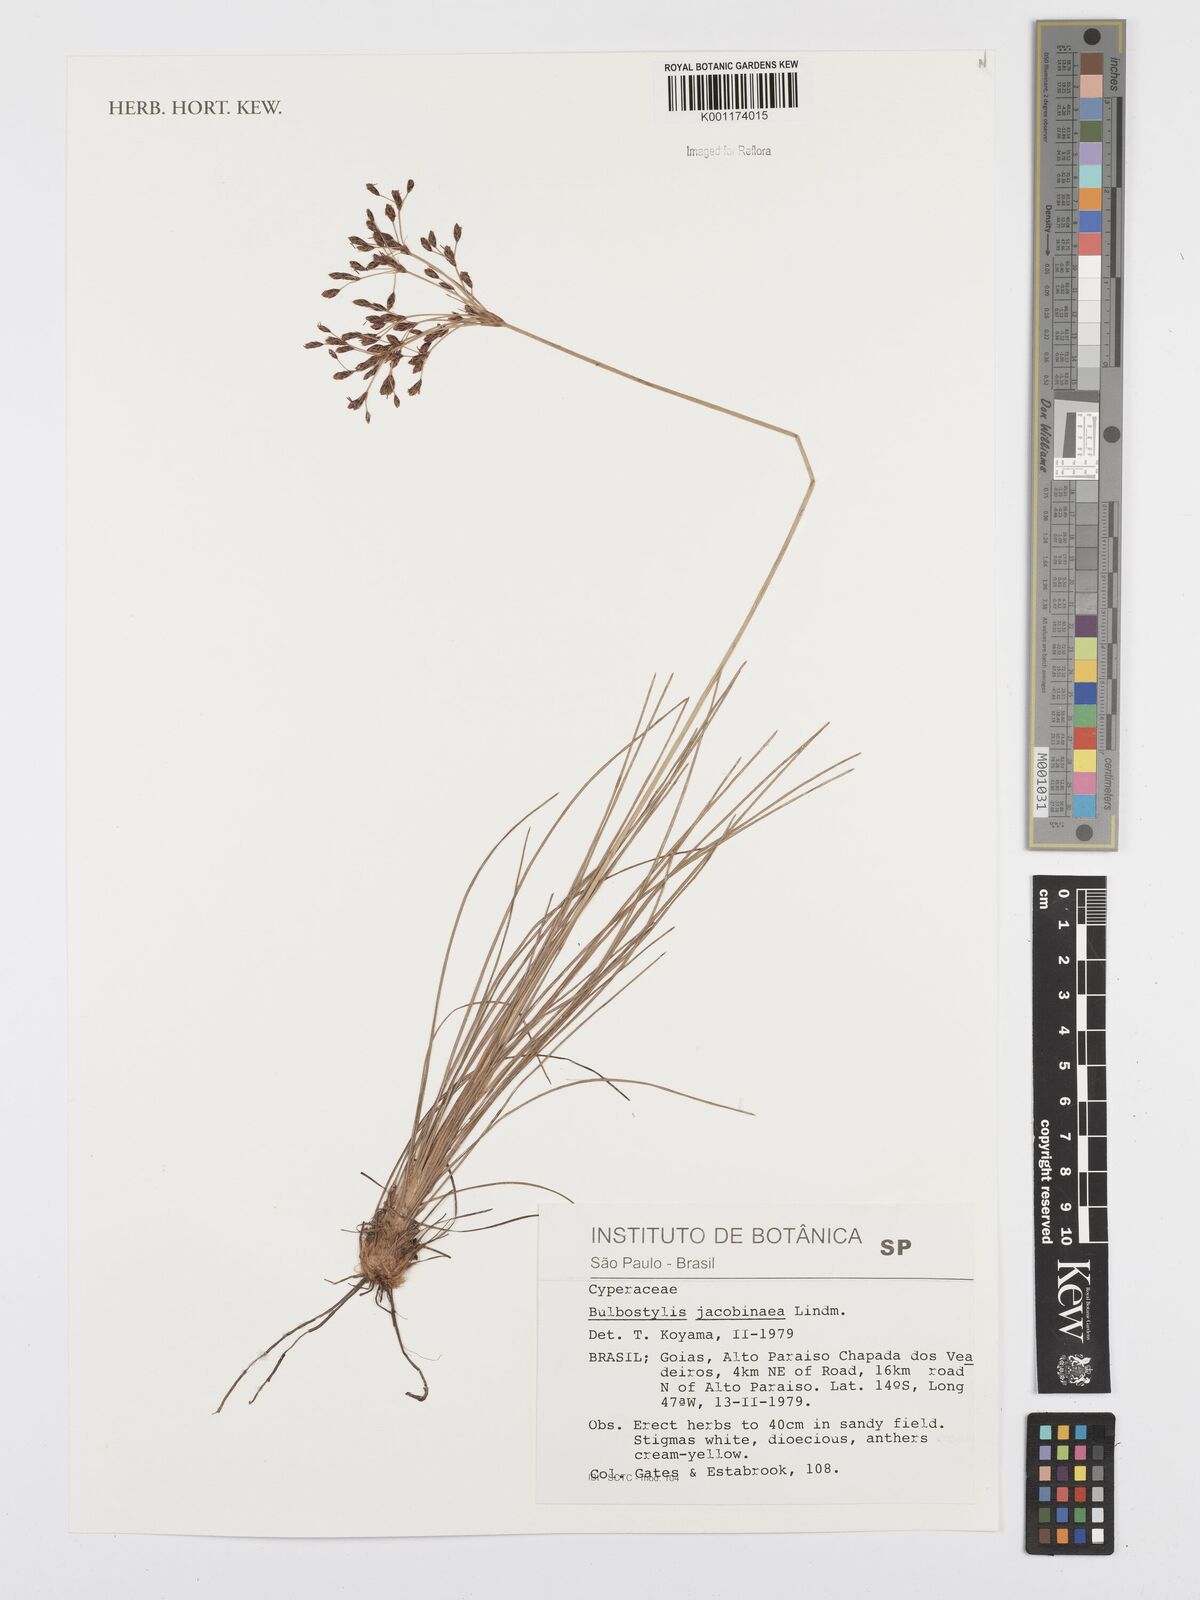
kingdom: Plantae
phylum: Tracheophyta
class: Liliopsida
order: Poales
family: Cyperaceae
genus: Bulbostylis
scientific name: Bulbostylis jacobinae
